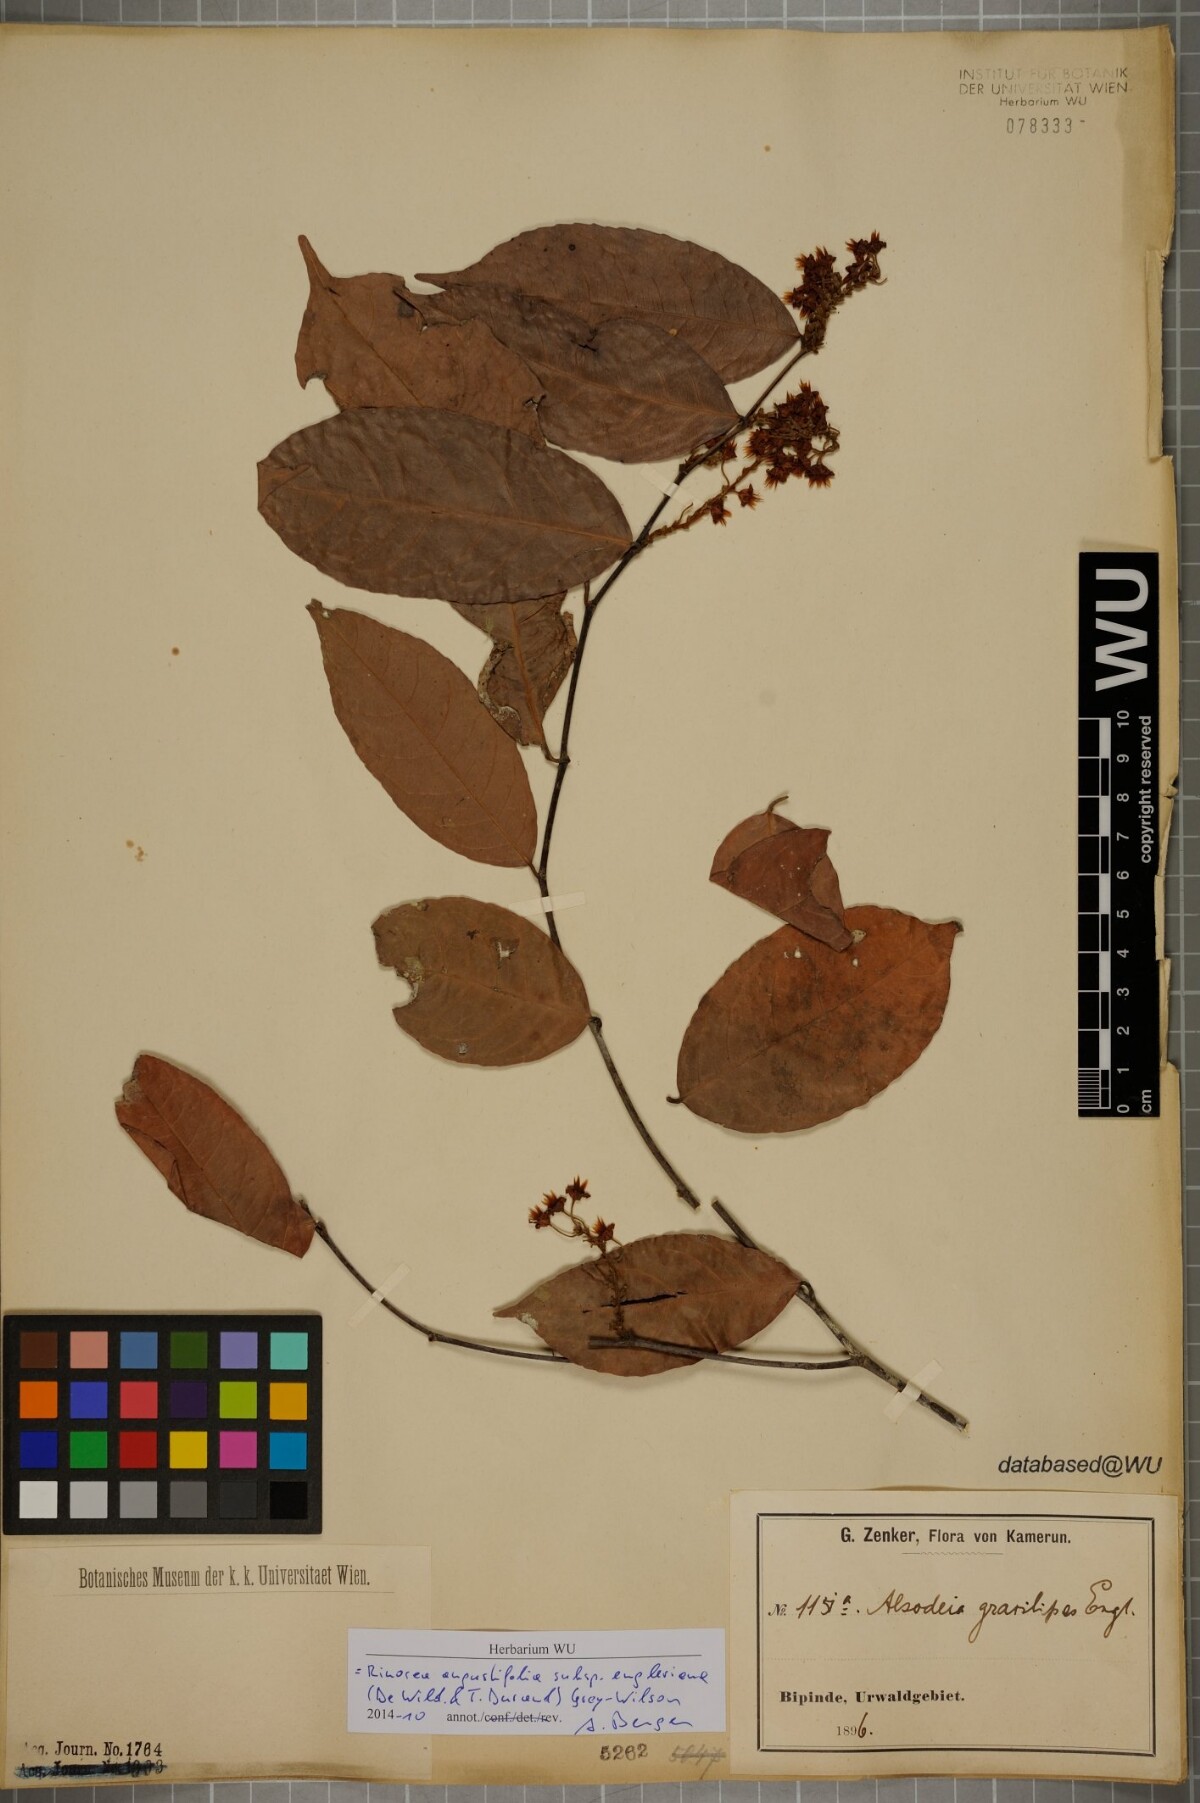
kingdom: Plantae
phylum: Tracheophyta
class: Magnoliopsida
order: Malpighiales
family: Violaceae
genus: Rinorea
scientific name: Rinorea angustifolia
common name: White violet-bush
